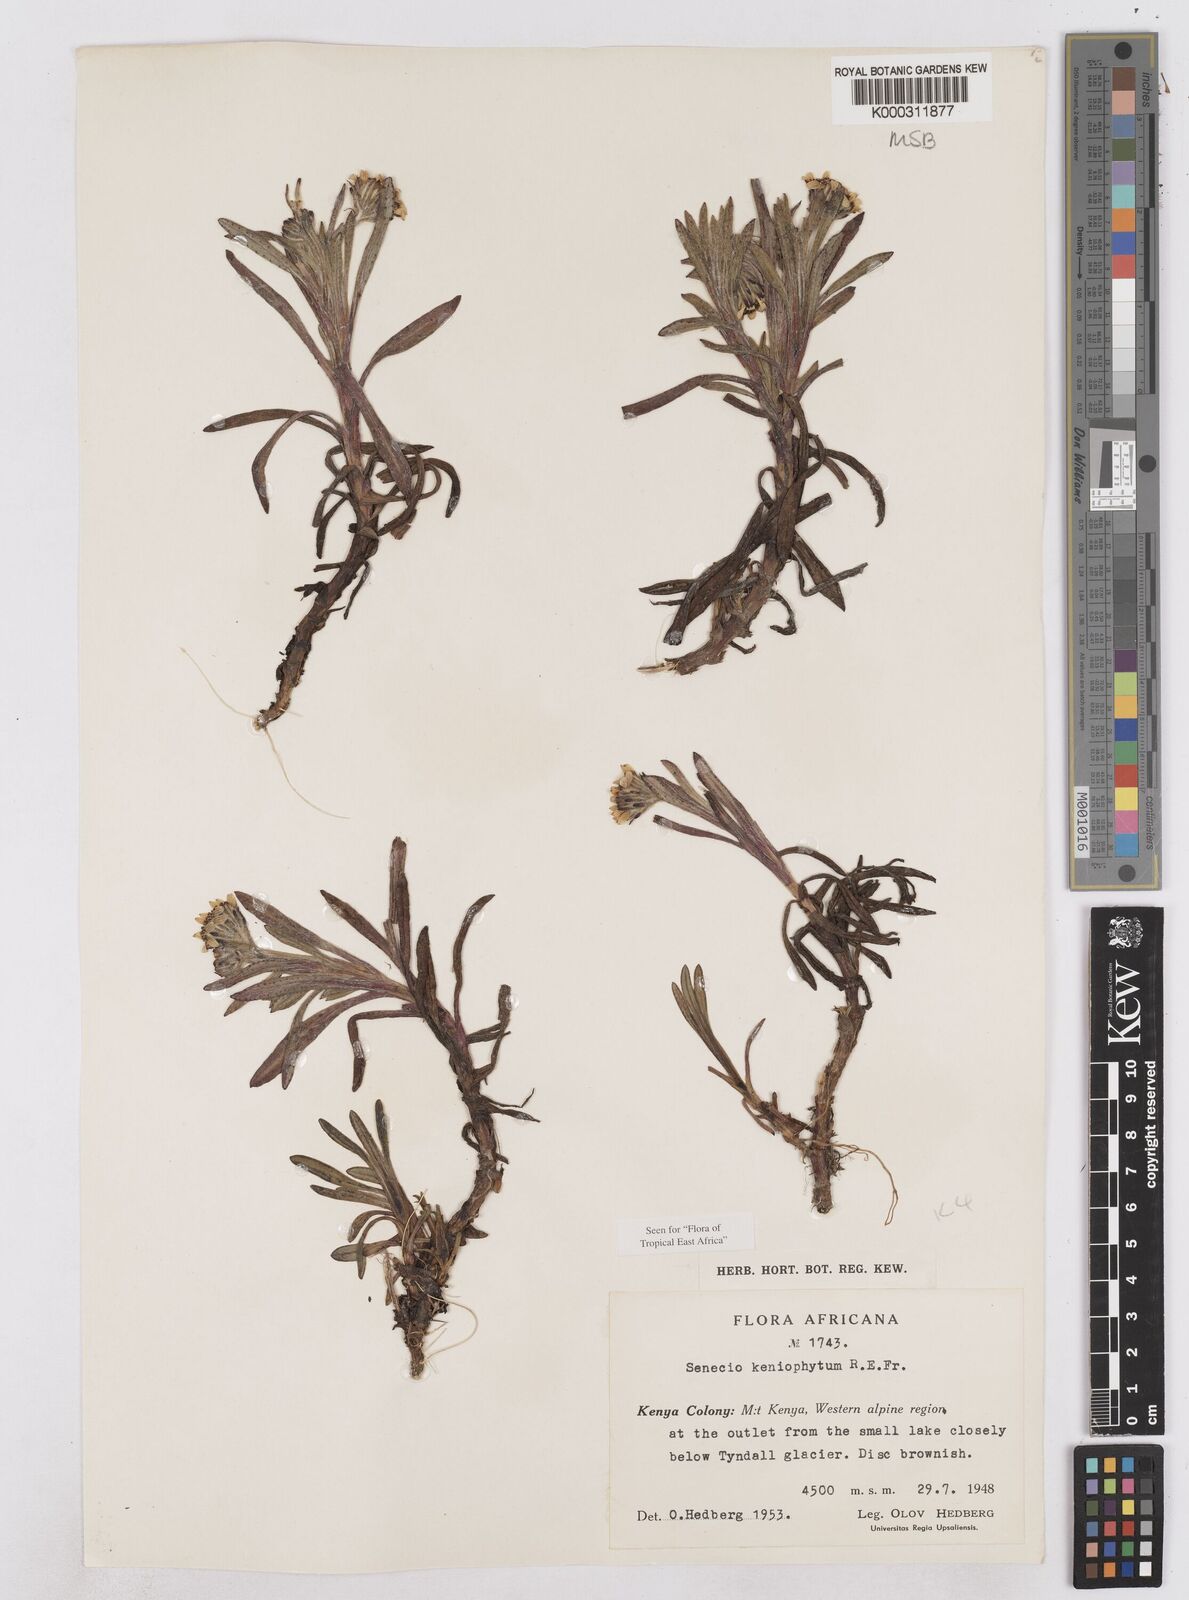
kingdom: Plantae
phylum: Tracheophyta
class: Magnoliopsida
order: Asterales
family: Asteraceae
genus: Senecio
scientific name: Senecio keniophytum
